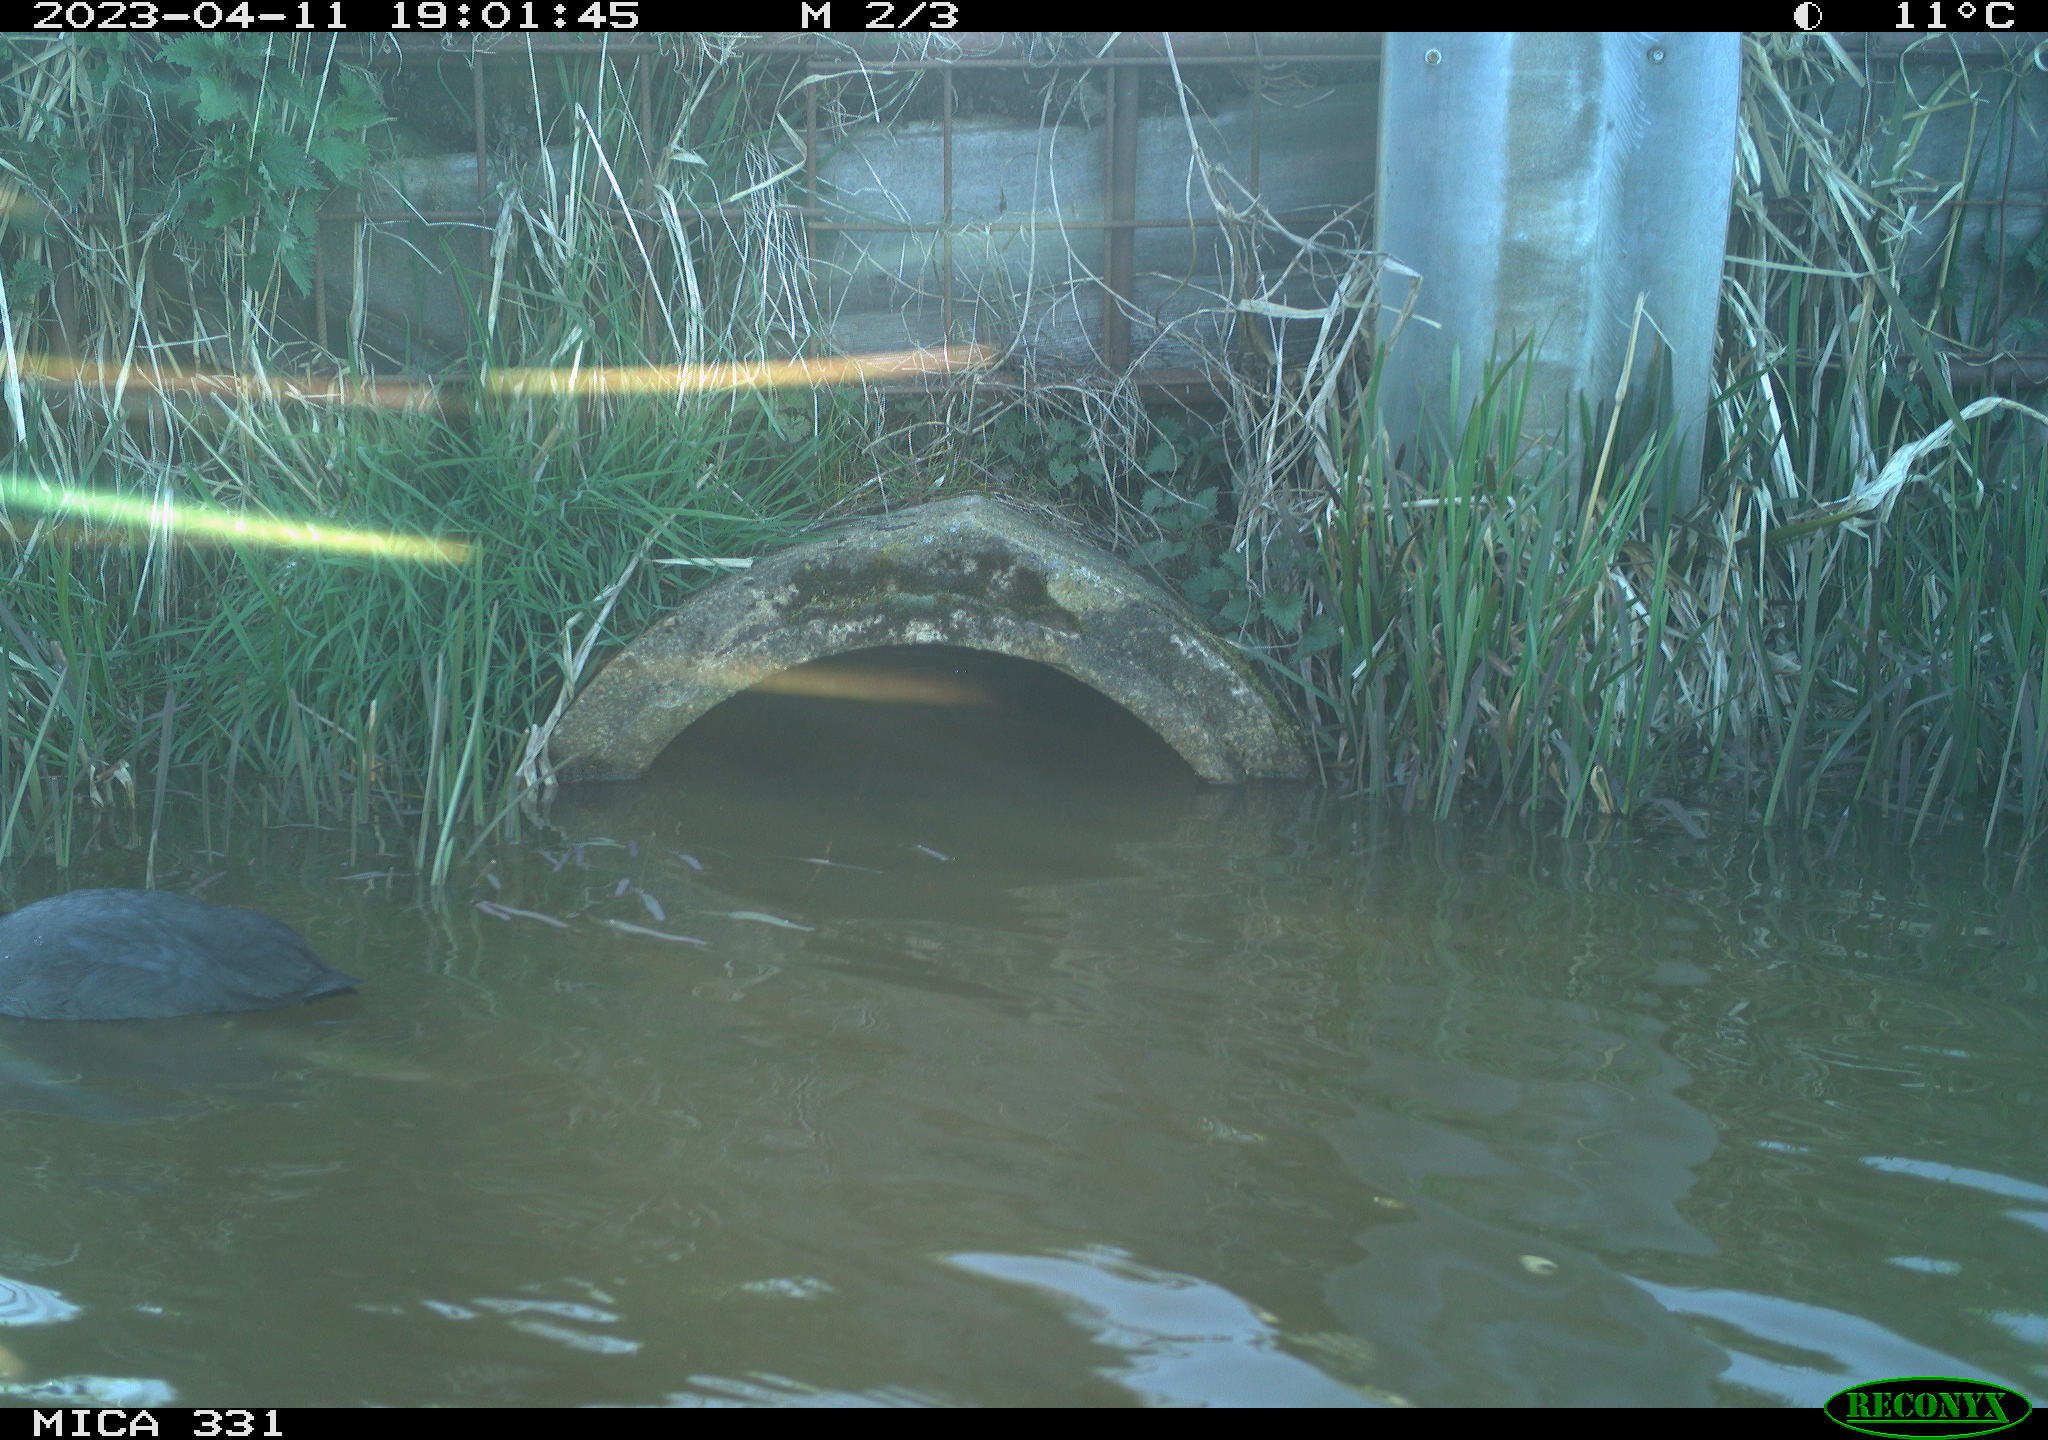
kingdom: Animalia
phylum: Chordata
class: Aves
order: Gruiformes
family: Rallidae
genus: Fulica
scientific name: Fulica atra
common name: Eurasian coot
